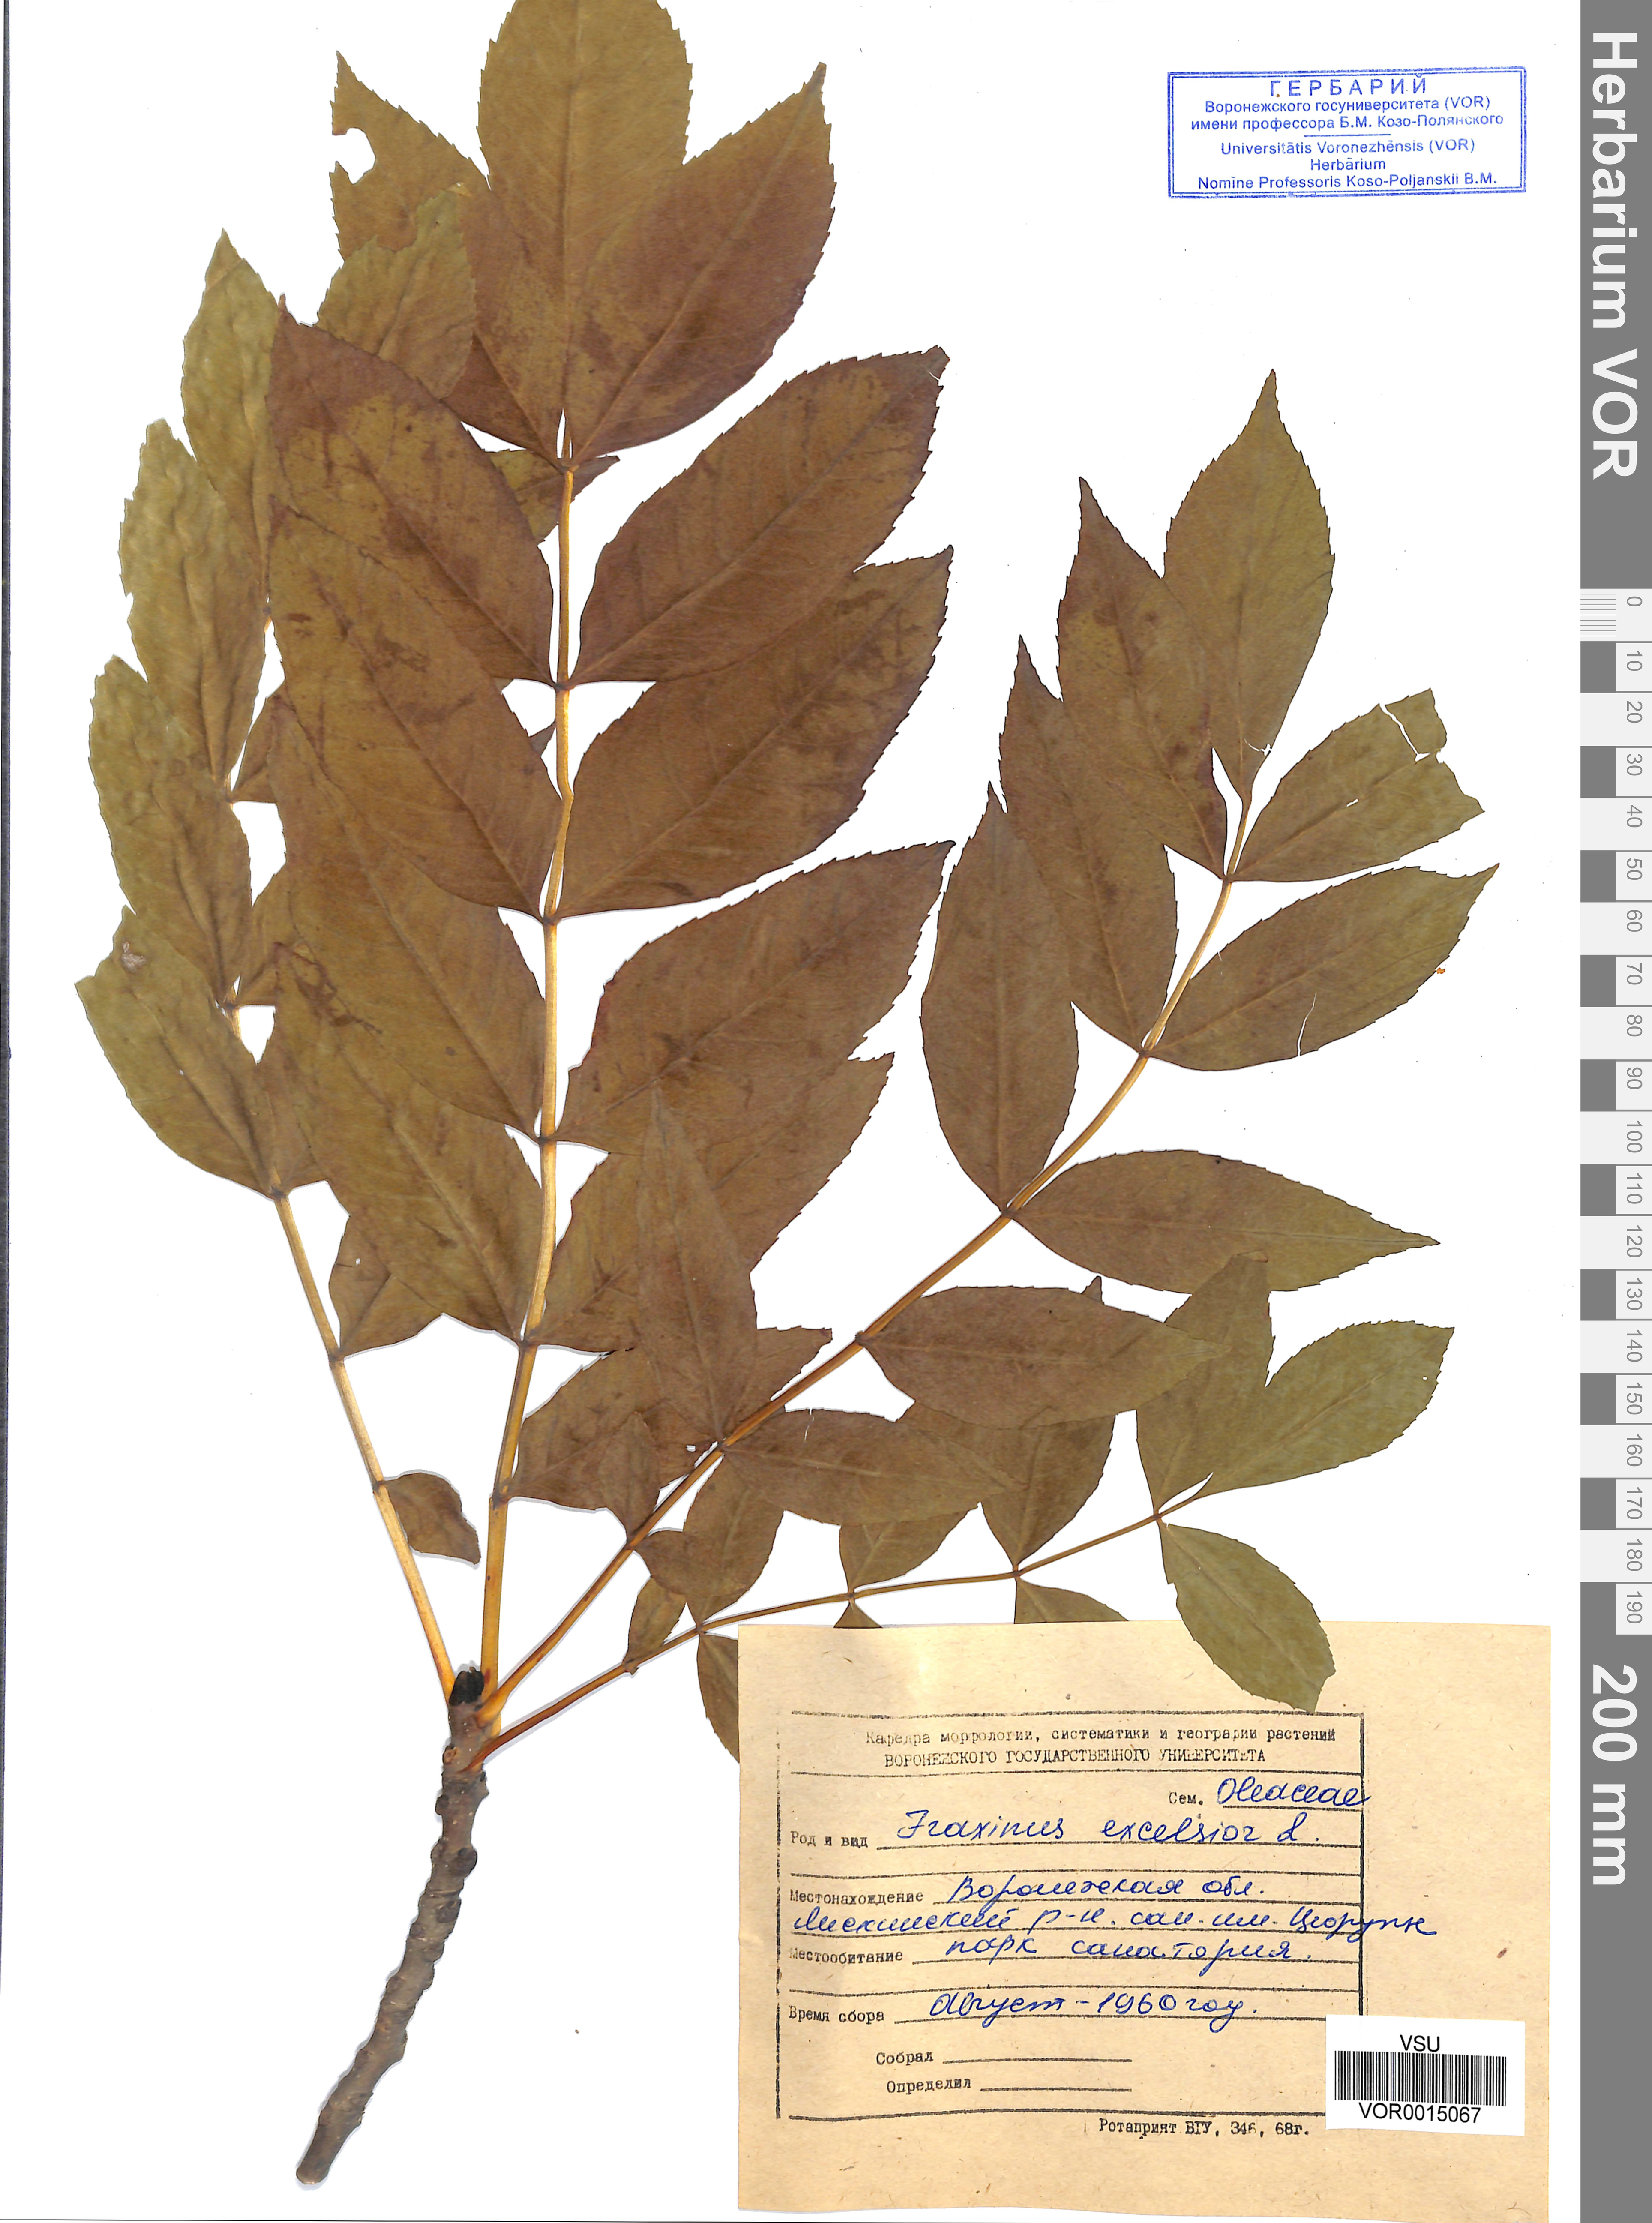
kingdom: Plantae
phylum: Tracheophyta
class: Magnoliopsida
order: Lamiales
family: Oleaceae
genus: Fraxinus
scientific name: Fraxinus excelsior
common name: European ash
